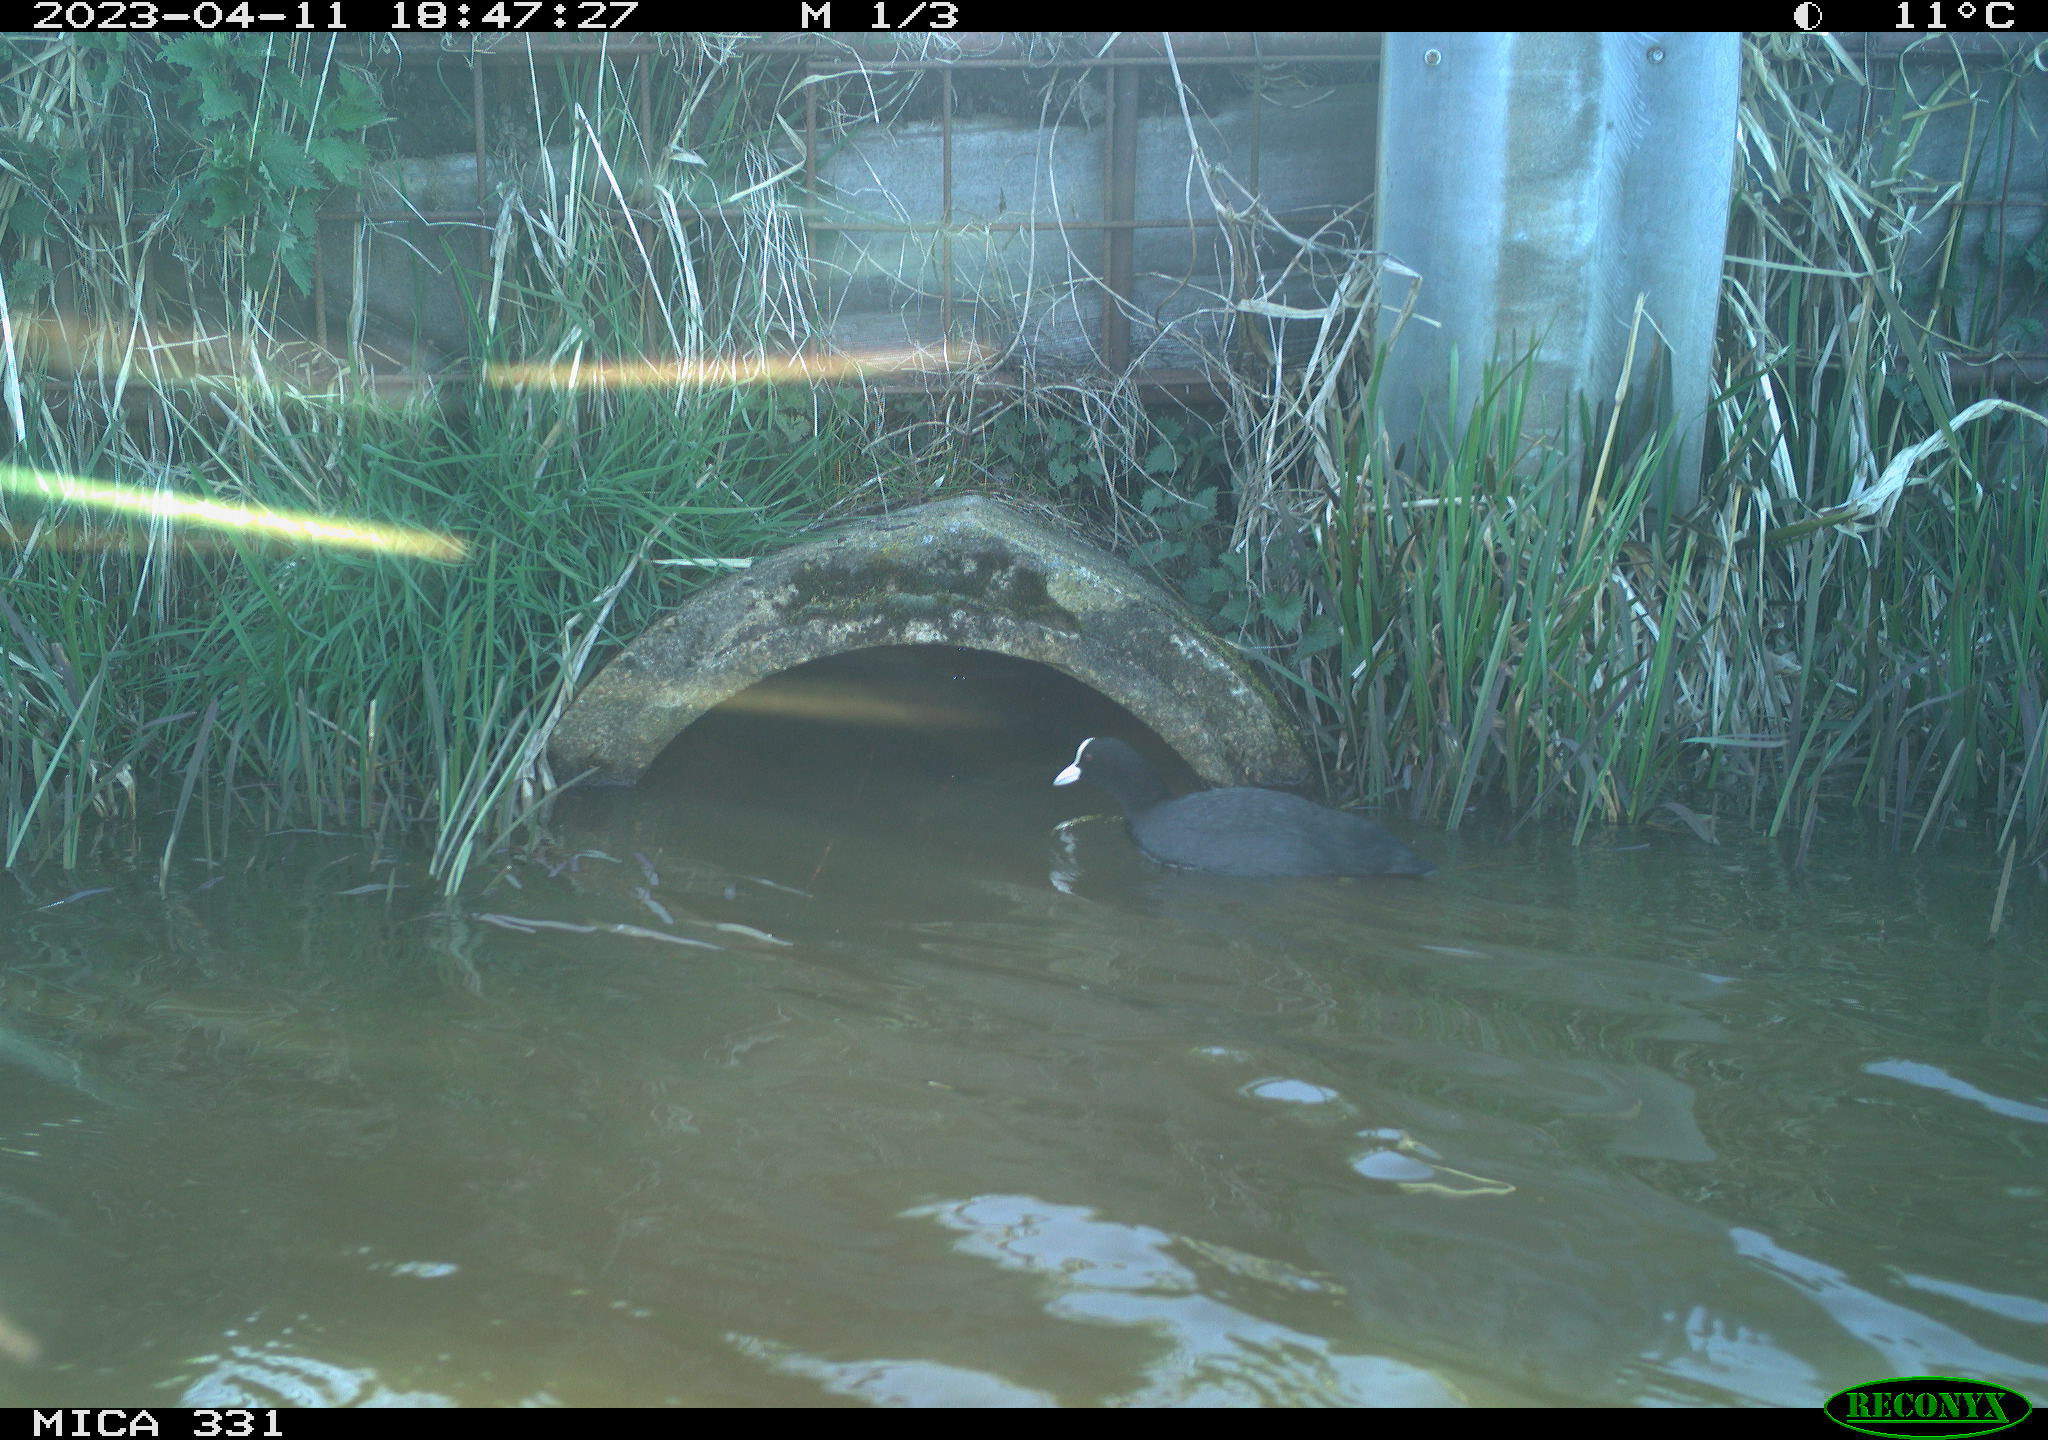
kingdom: Animalia
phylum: Chordata
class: Aves
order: Gruiformes
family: Rallidae
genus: Fulica
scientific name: Fulica atra
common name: Eurasian coot
